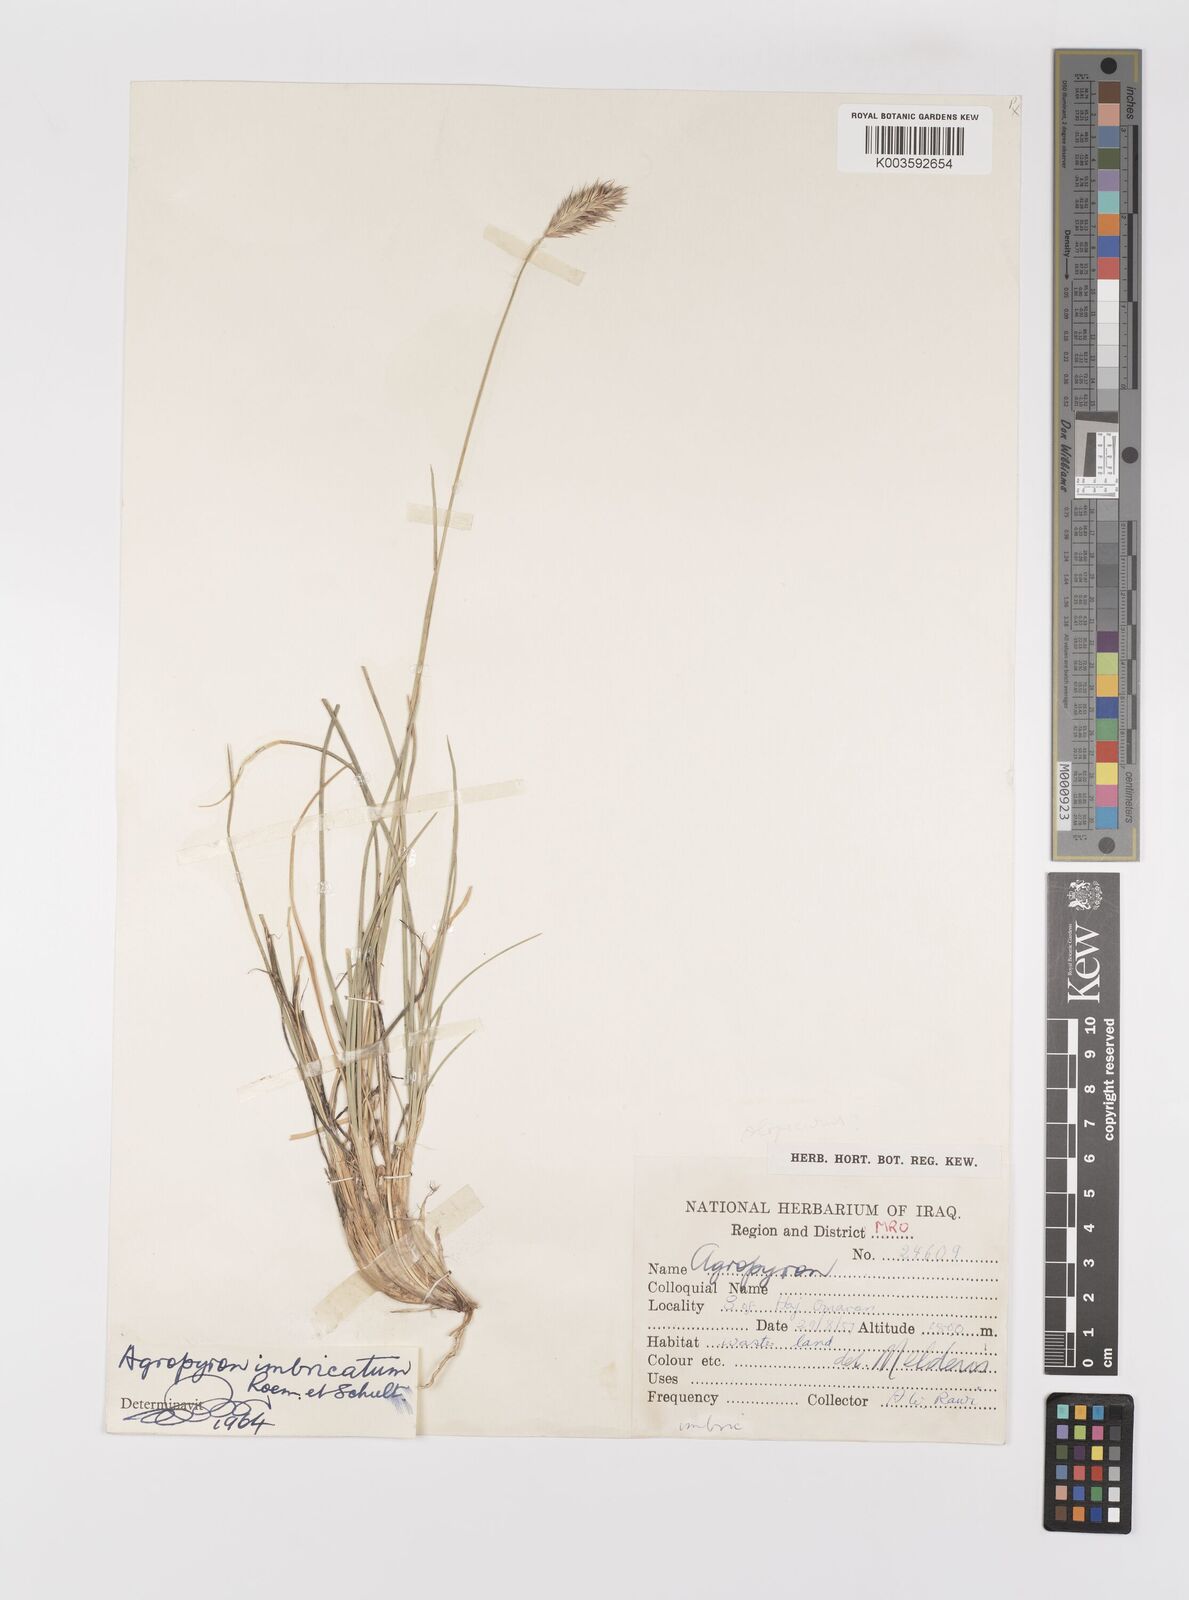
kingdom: Plantae
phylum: Tracheophyta
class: Liliopsida
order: Poales
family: Poaceae
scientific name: Poaceae
